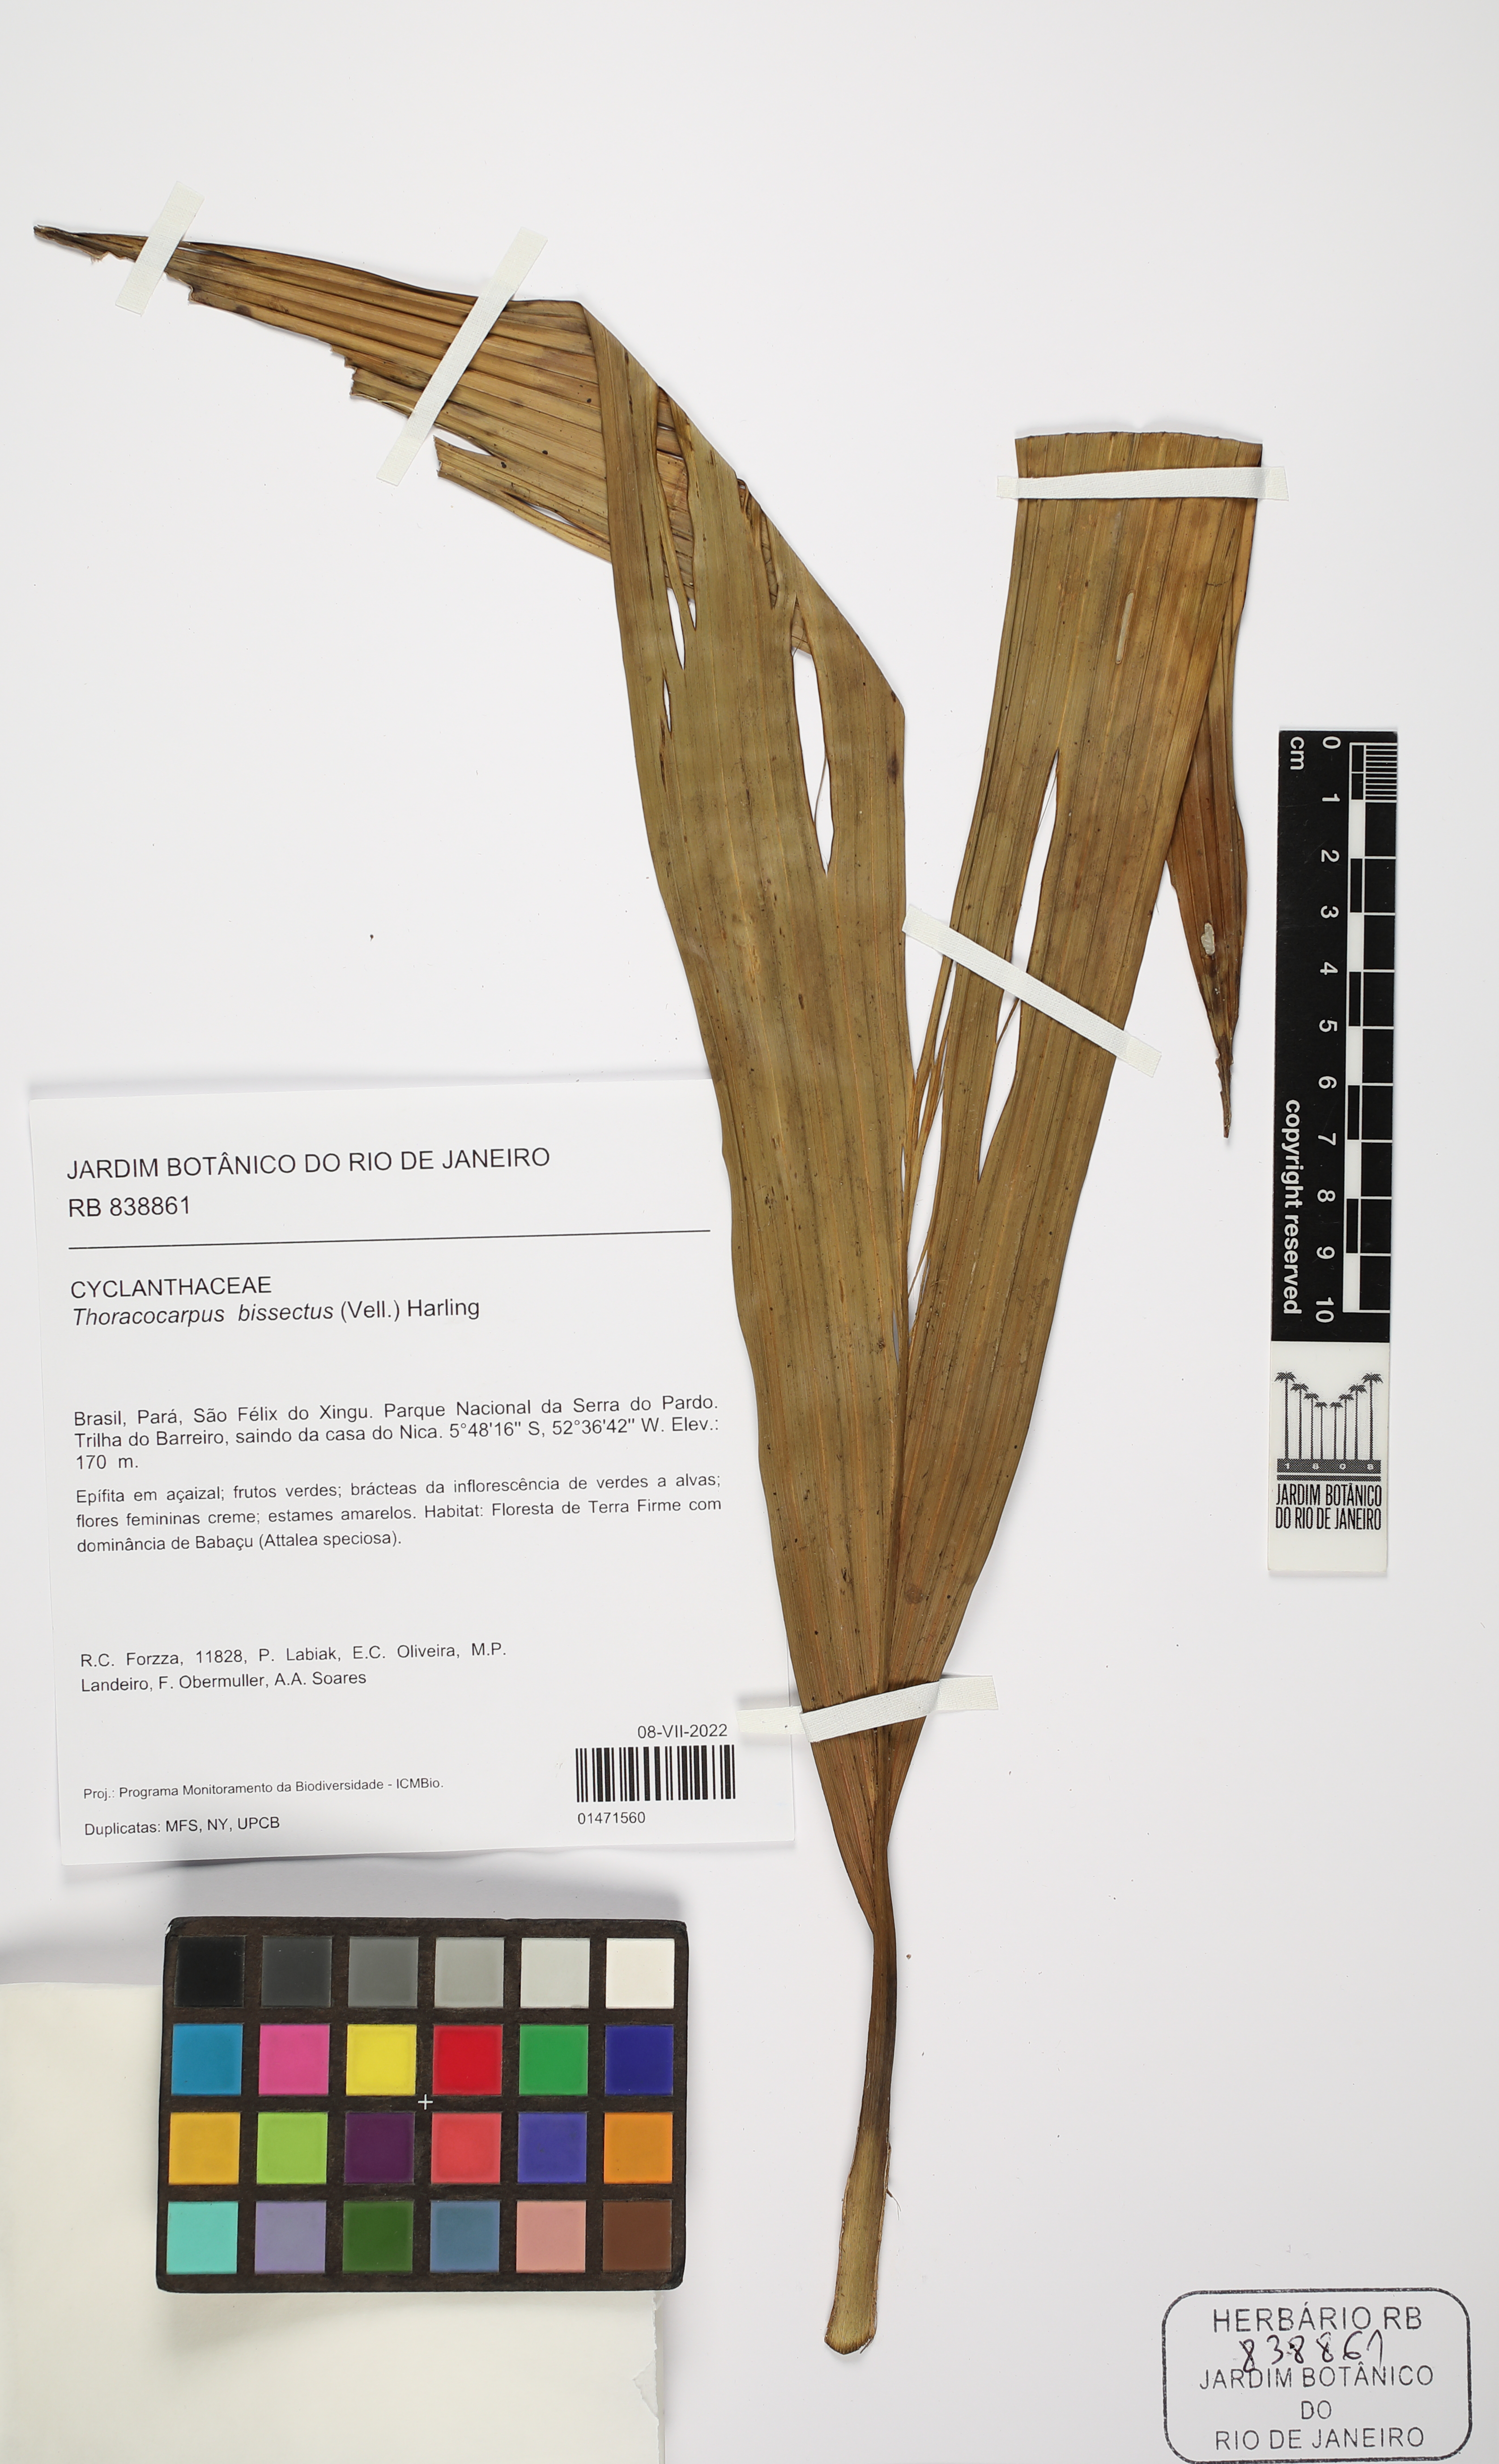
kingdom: Plantae
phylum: Tracheophyta
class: Liliopsida
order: Pandanales
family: Cyclanthaceae
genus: Thoracocarpus
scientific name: Thoracocarpus bissectus
